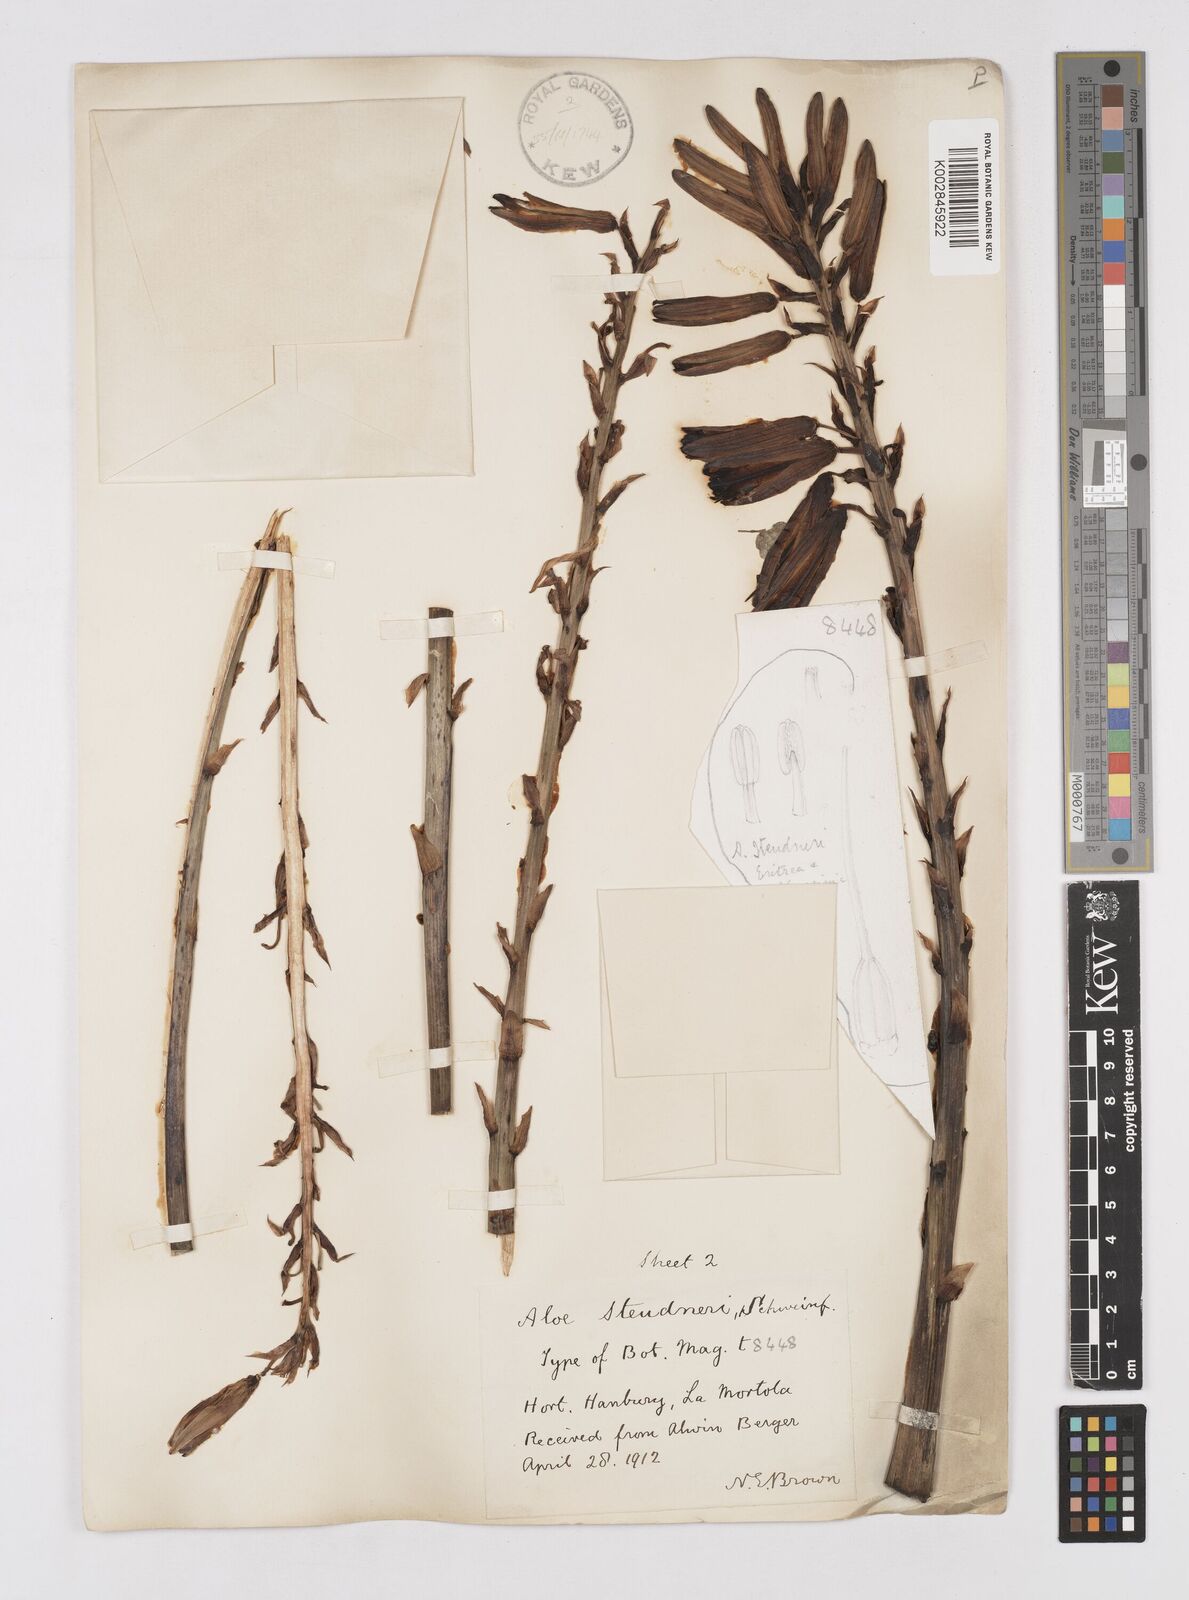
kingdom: Plantae
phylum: Tracheophyta
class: Liliopsida
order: Asparagales
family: Asphodelaceae
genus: Aloe
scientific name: Aloe steudneri
